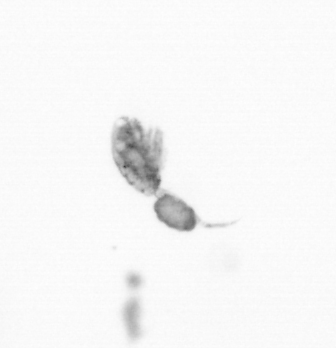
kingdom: Animalia
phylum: Arthropoda
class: Copepoda
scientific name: Copepoda
